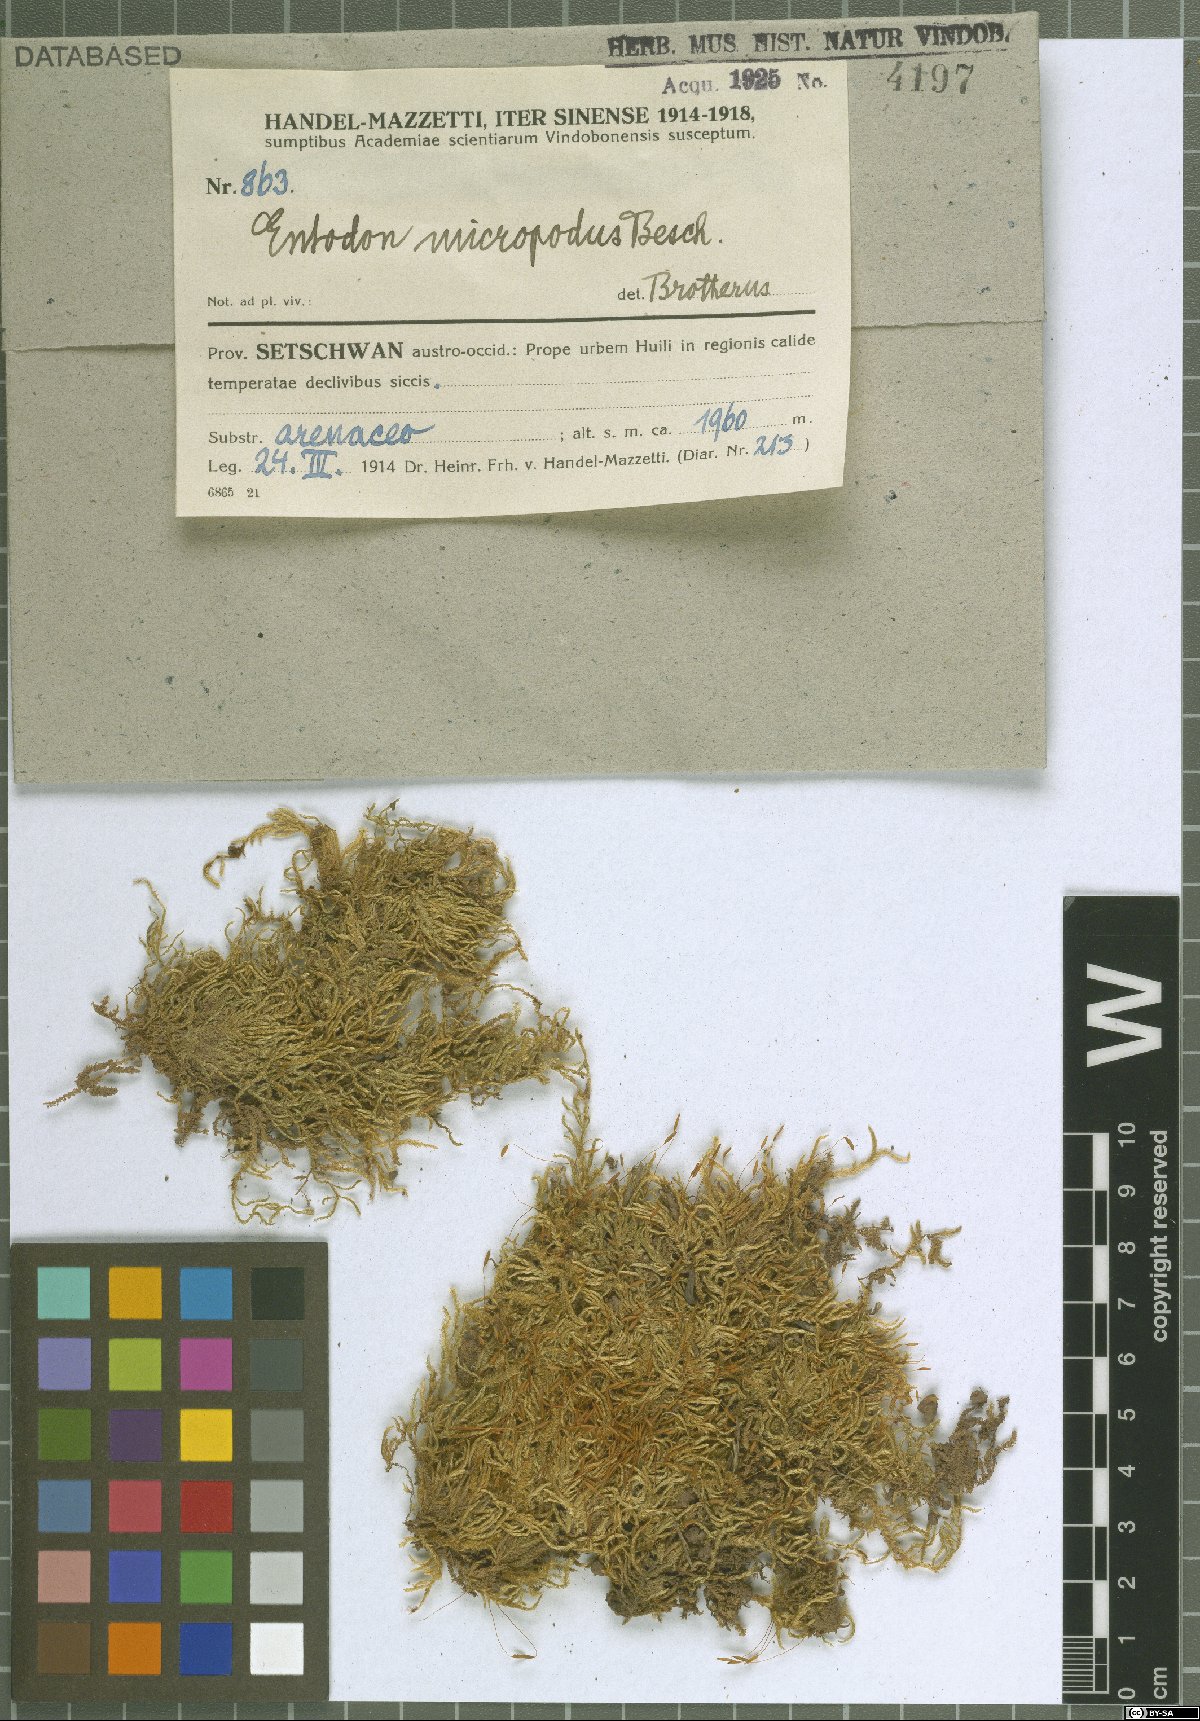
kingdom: Plantae
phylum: Bryophyta
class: Bryopsida
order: Hypnales
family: Entodontaceae
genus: Entodon
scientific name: Entodon prorepens
